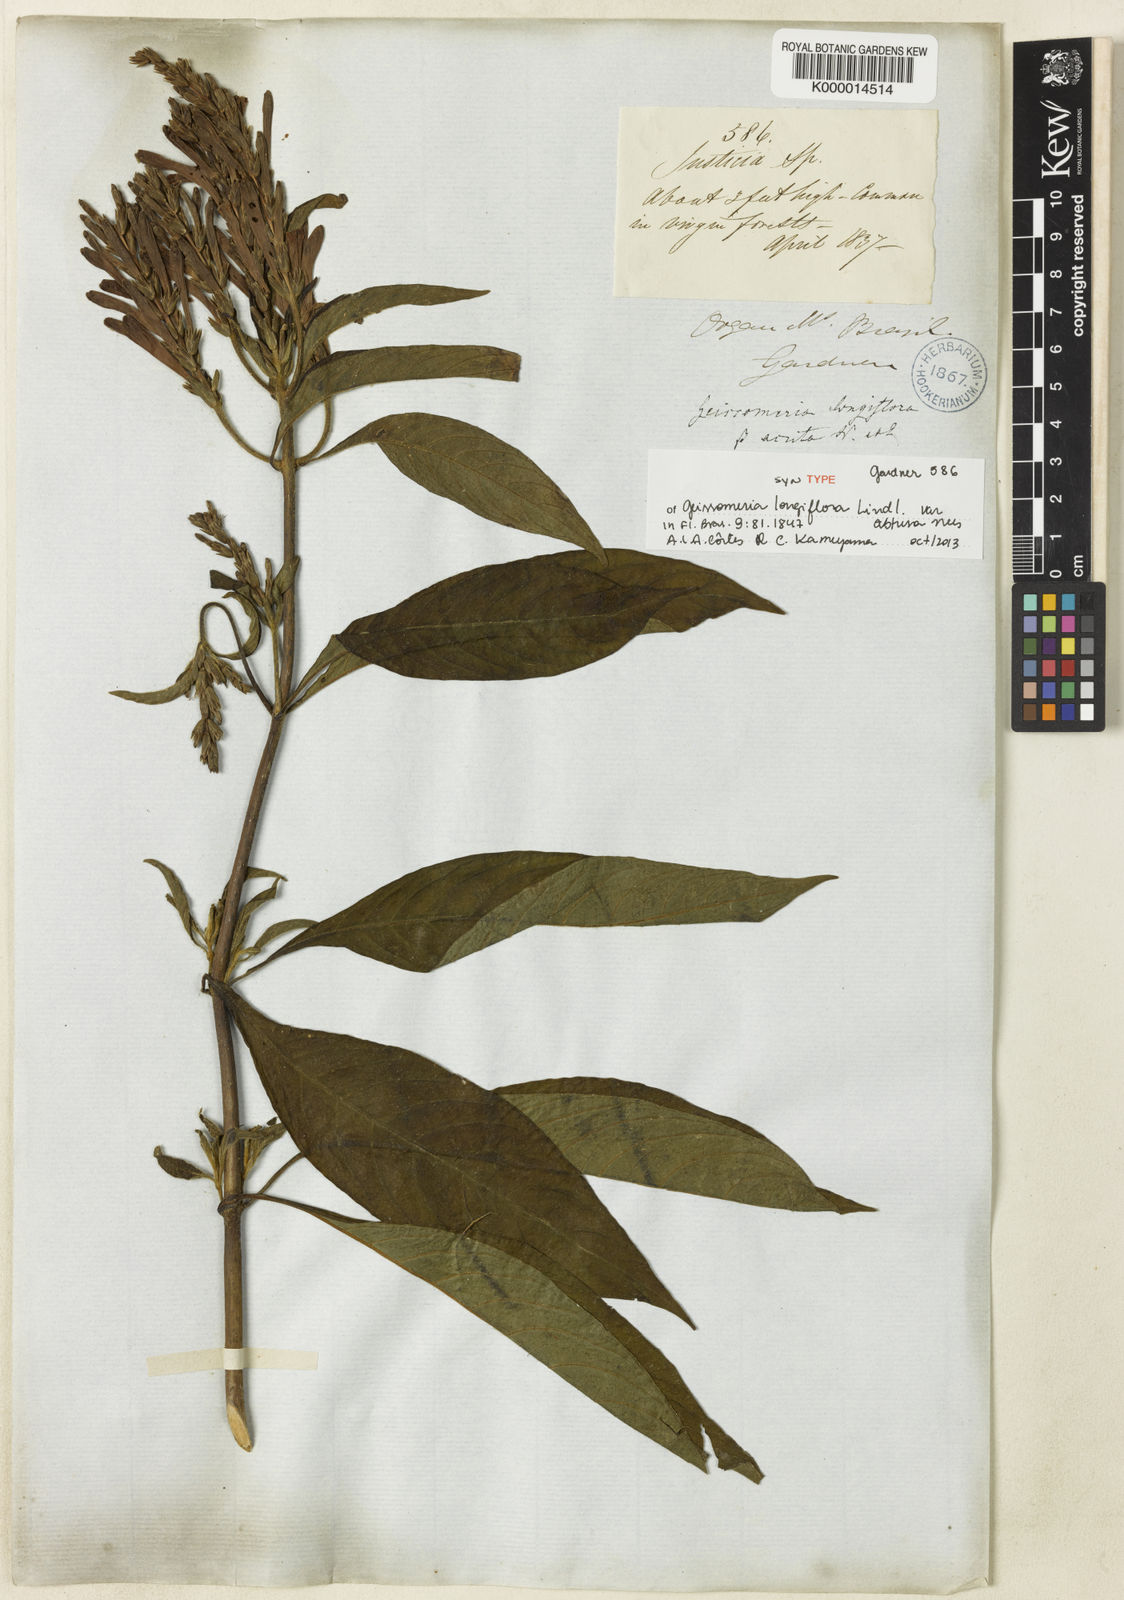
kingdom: Plantae
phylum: Tracheophyta
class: Magnoliopsida
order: Lamiales
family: Acanthaceae
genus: Aphelandra
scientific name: Aphelandra longiflora
